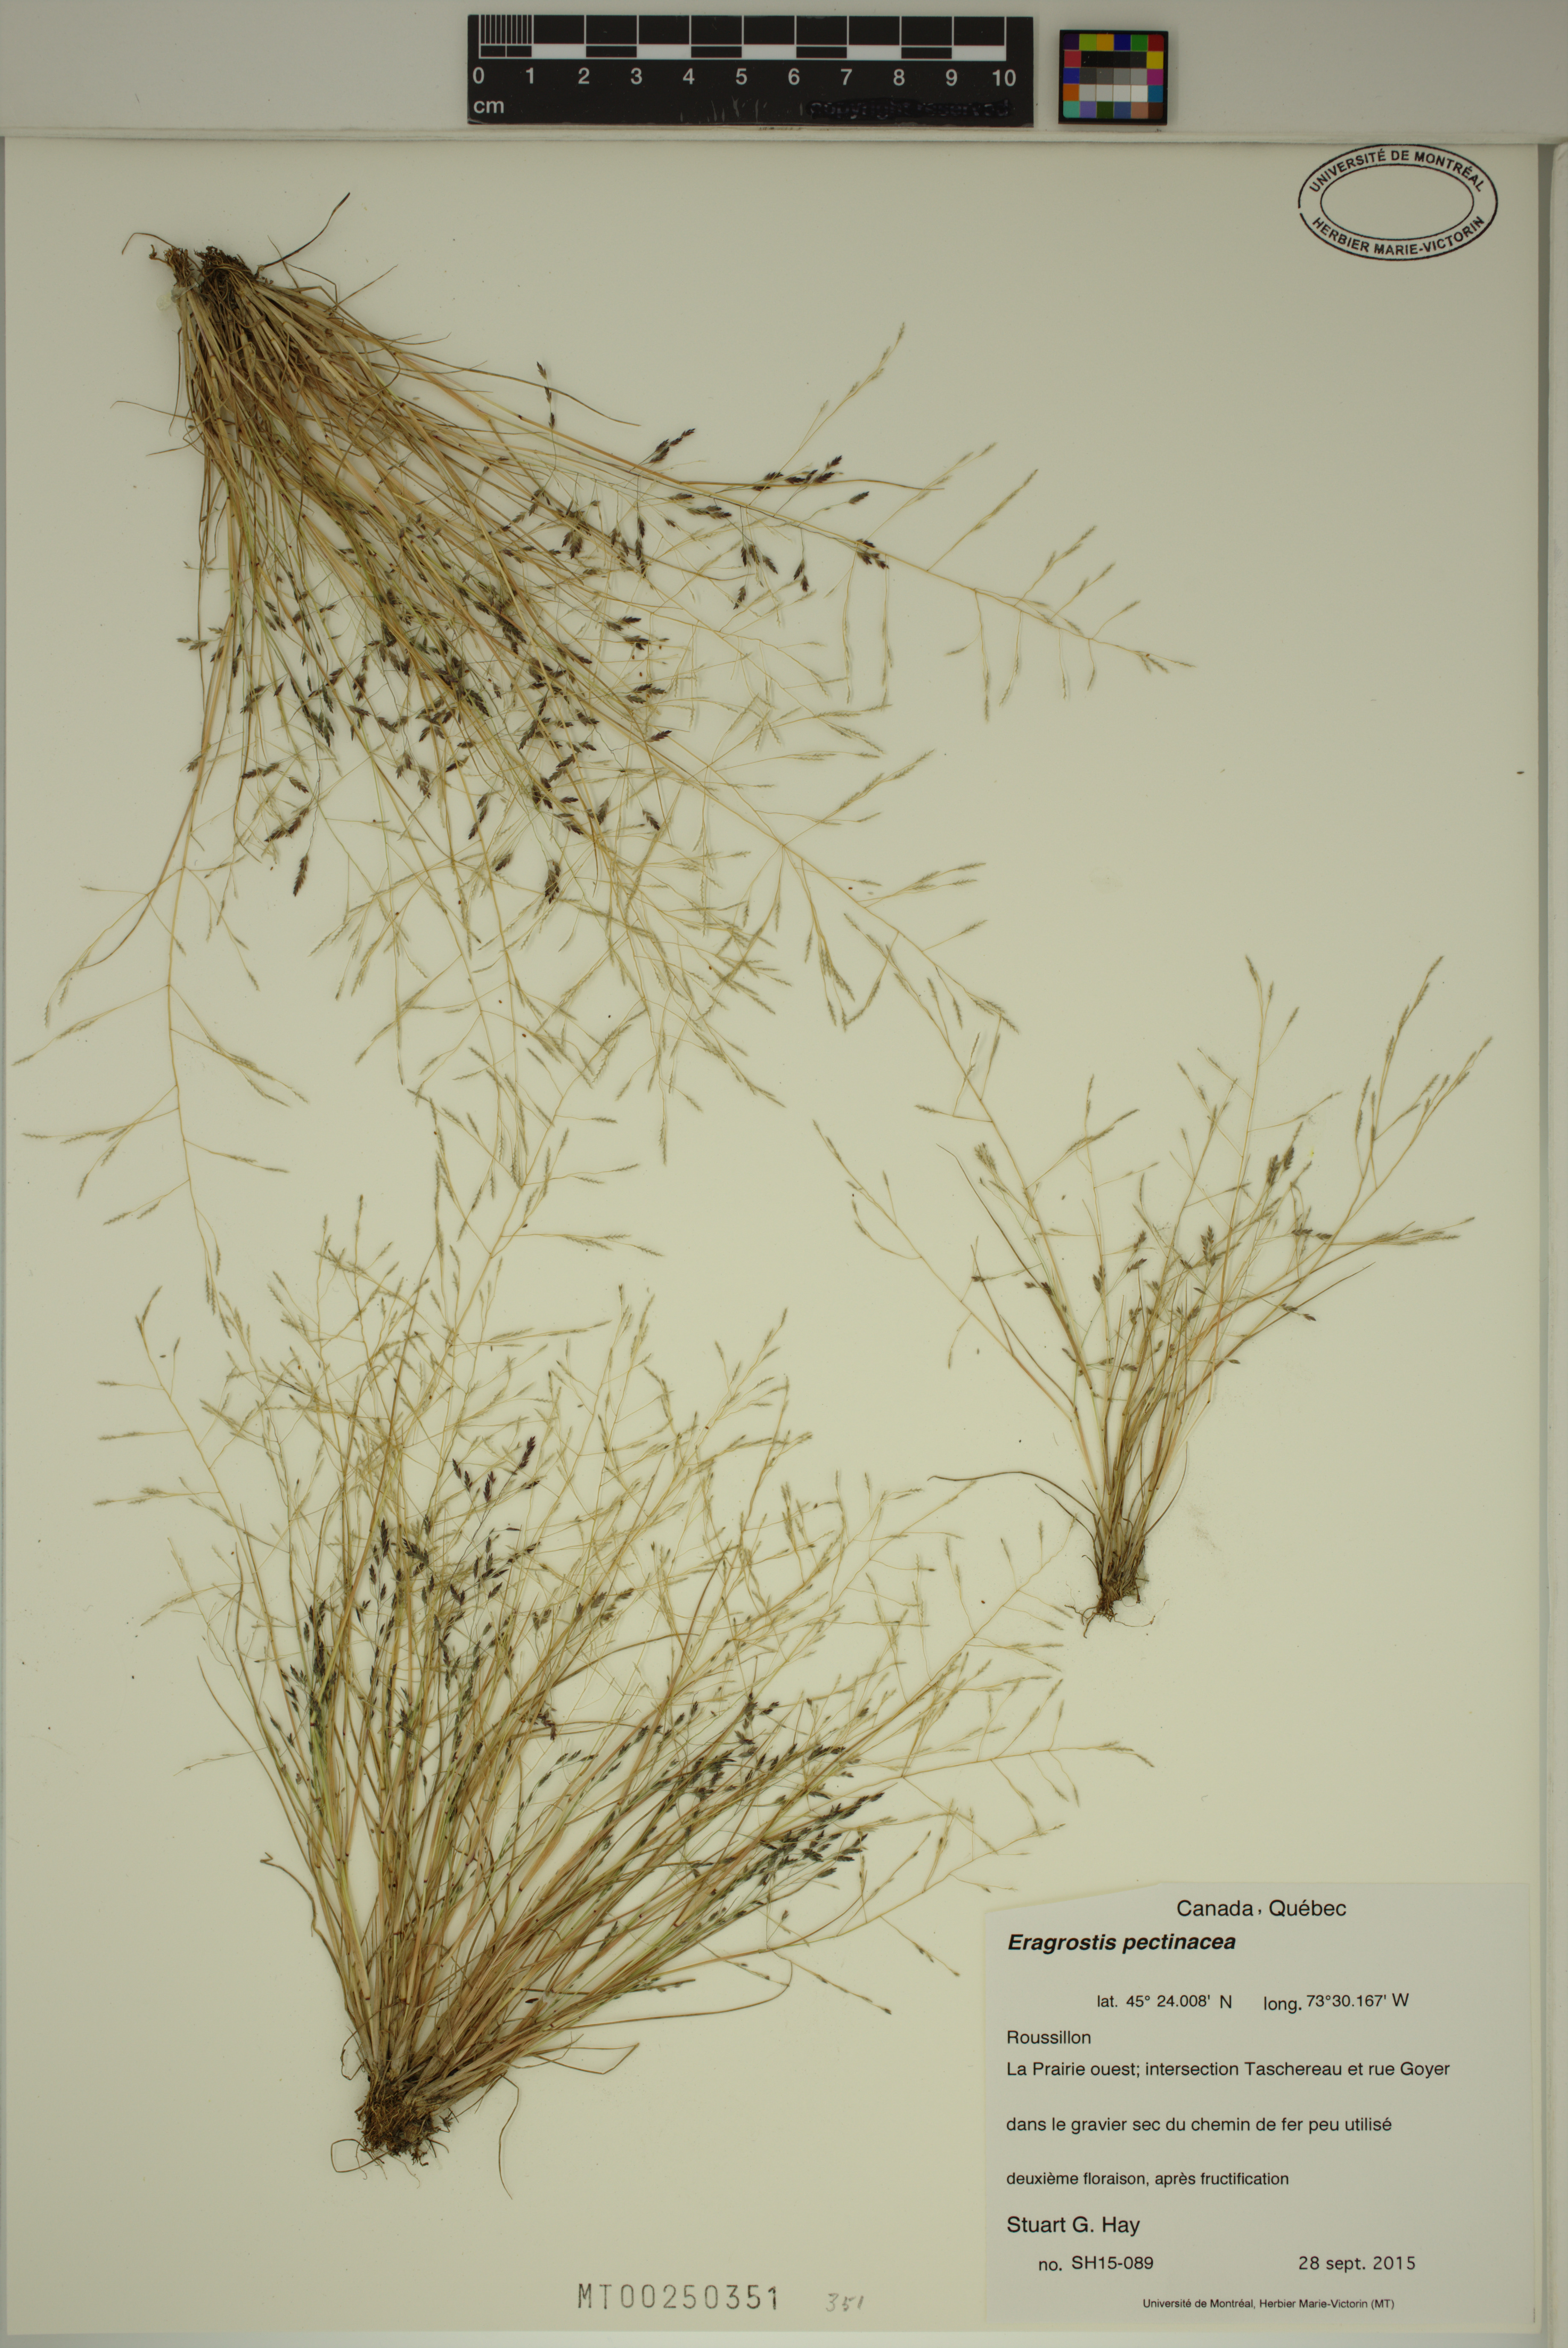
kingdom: Plantae
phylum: Tracheophyta
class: Liliopsida
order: Poales
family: Poaceae
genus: Eragrostis
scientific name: Eragrostis pectinacea
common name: Tufted lovegrass
